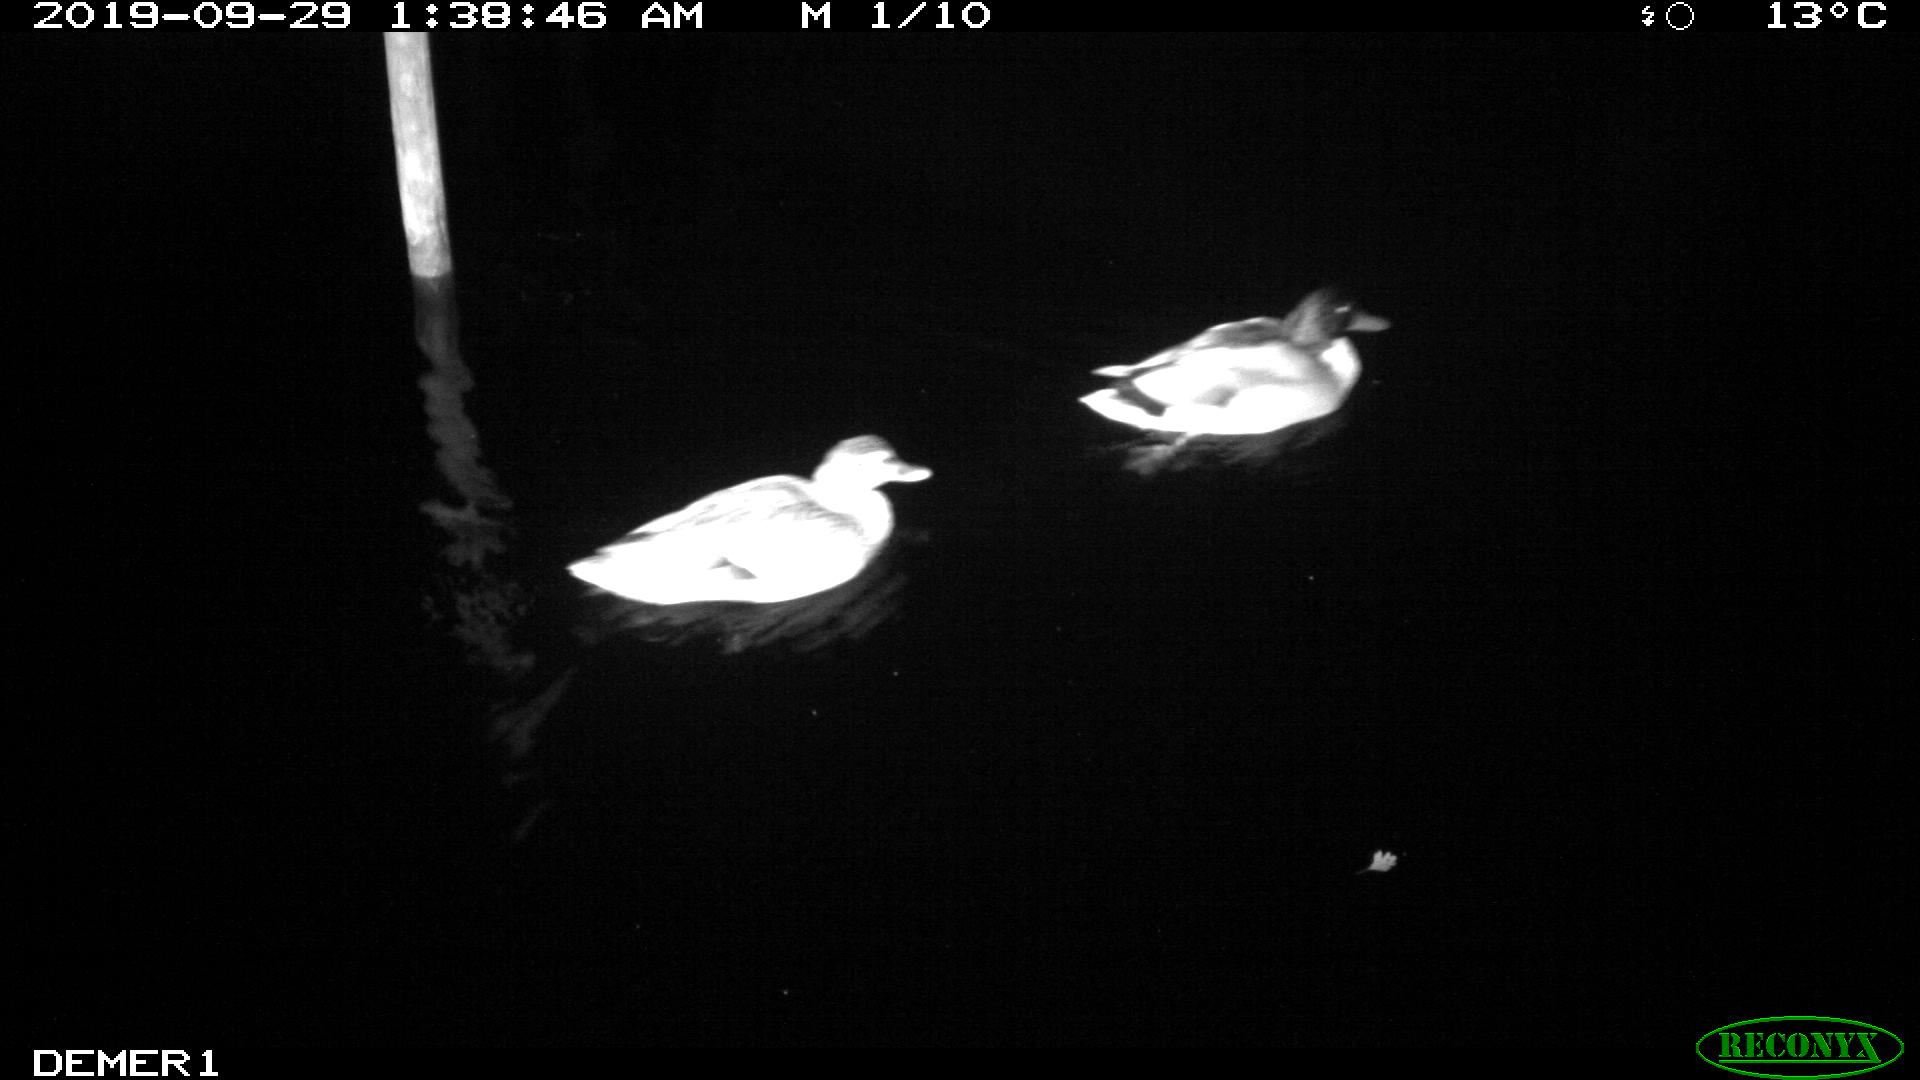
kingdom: Animalia
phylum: Chordata
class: Aves
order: Anseriformes
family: Anatidae
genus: Anas
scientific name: Anas platyrhynchos
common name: Mallard
